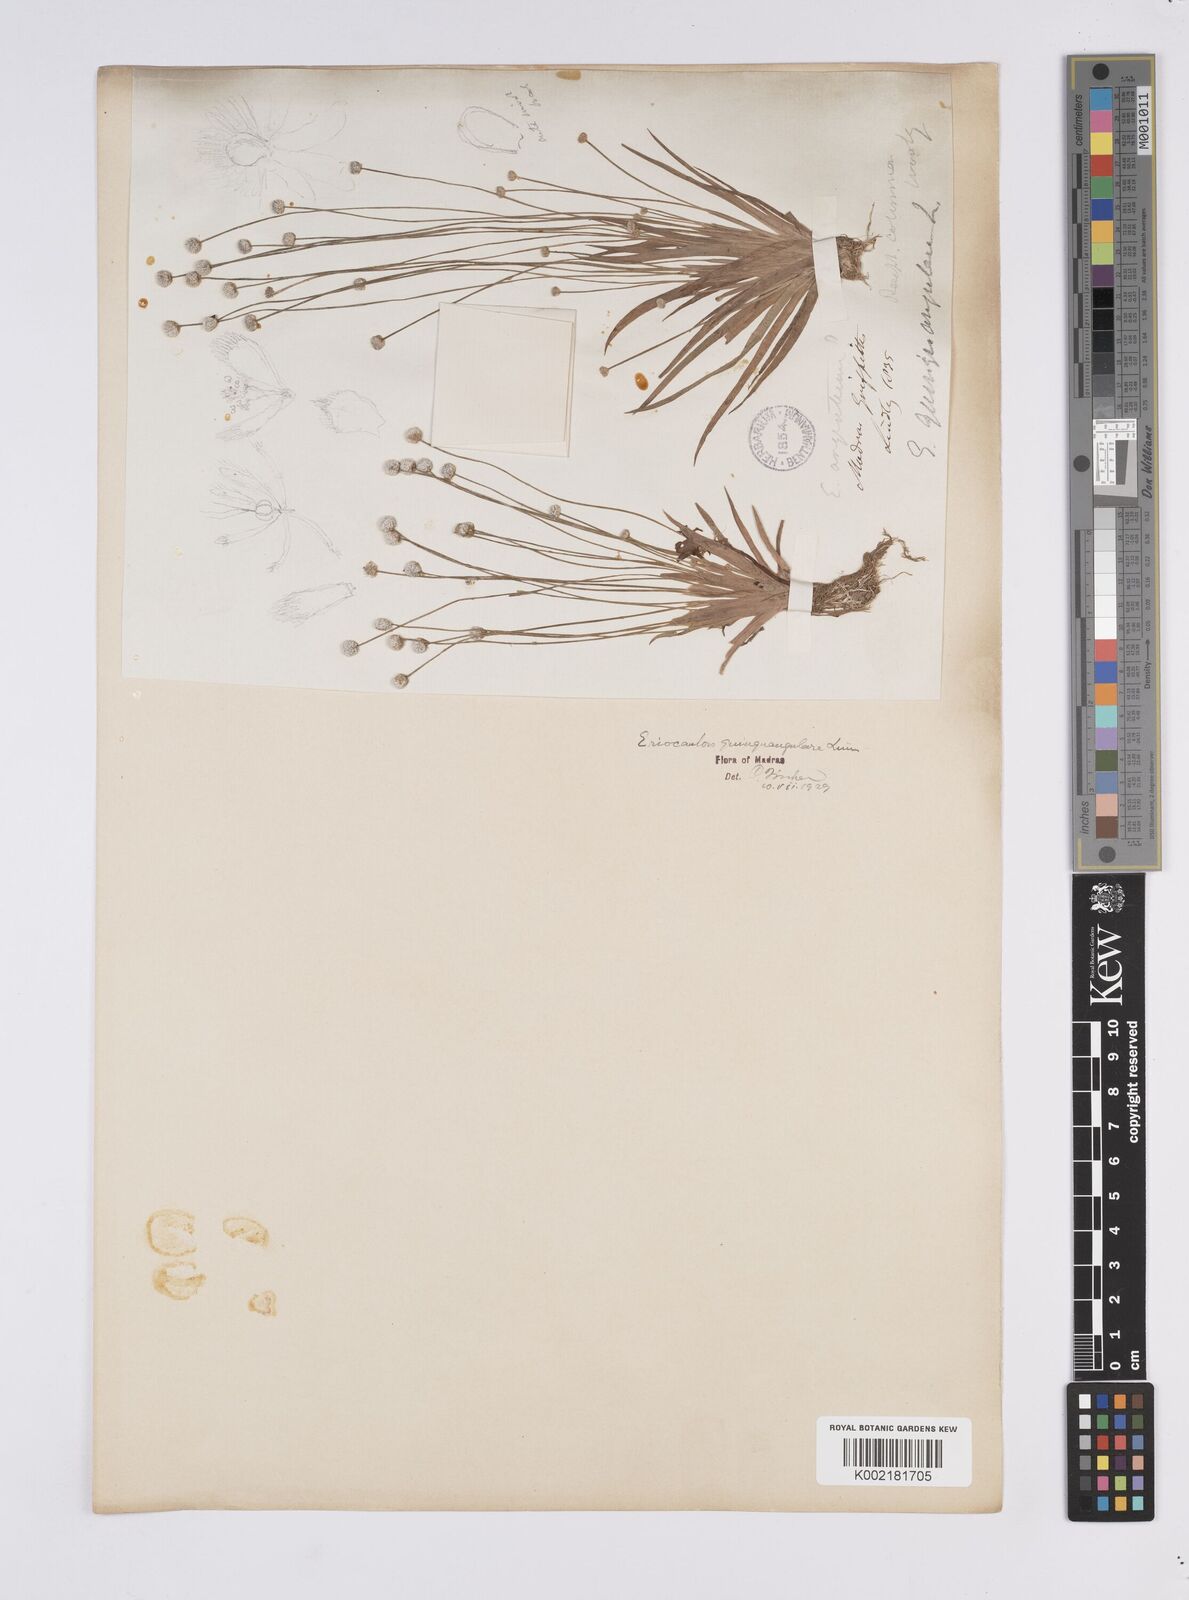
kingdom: Plantae
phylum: Tracheophyta
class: Liliopsida
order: Poales
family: Eriocaulaceae
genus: Eriocaulon
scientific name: Eriocaulon quinquangulare
